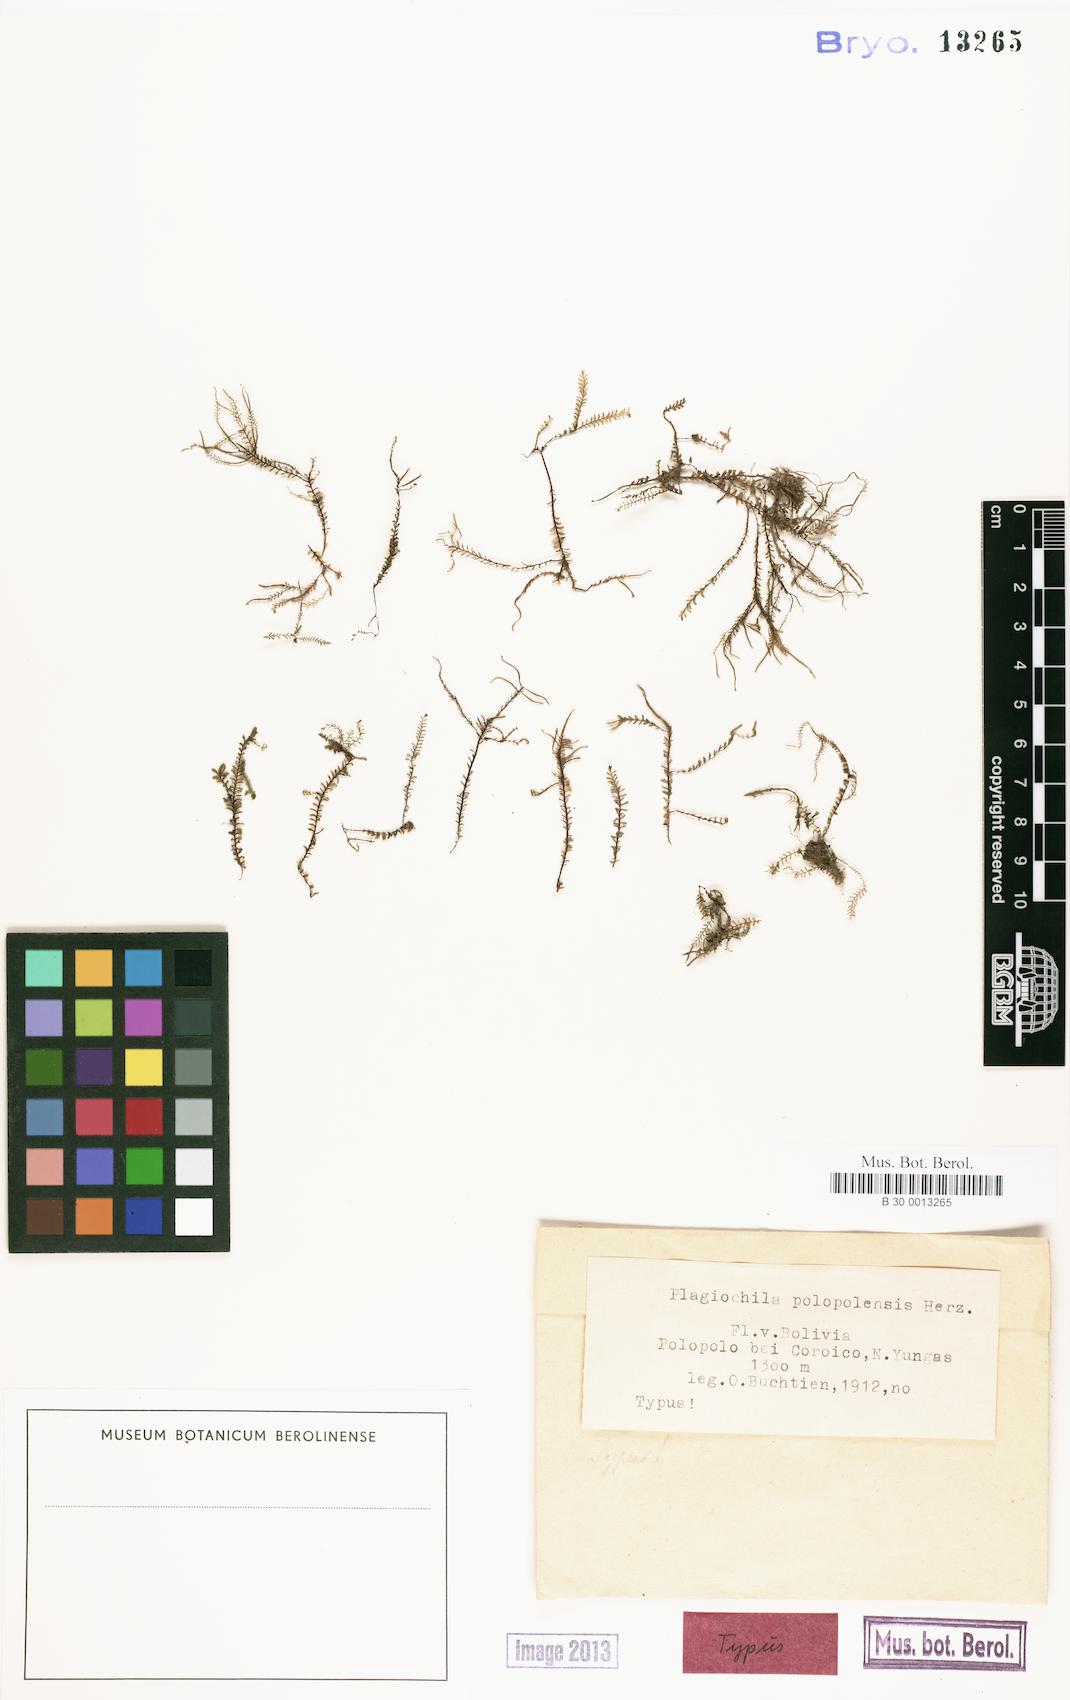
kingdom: Plantae
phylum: Marchantiophyta
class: Jungermanniopsida
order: Jungermanniales
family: Plagiochilaceae
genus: Plagiochila
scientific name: Plagiochila gymnocalycina
